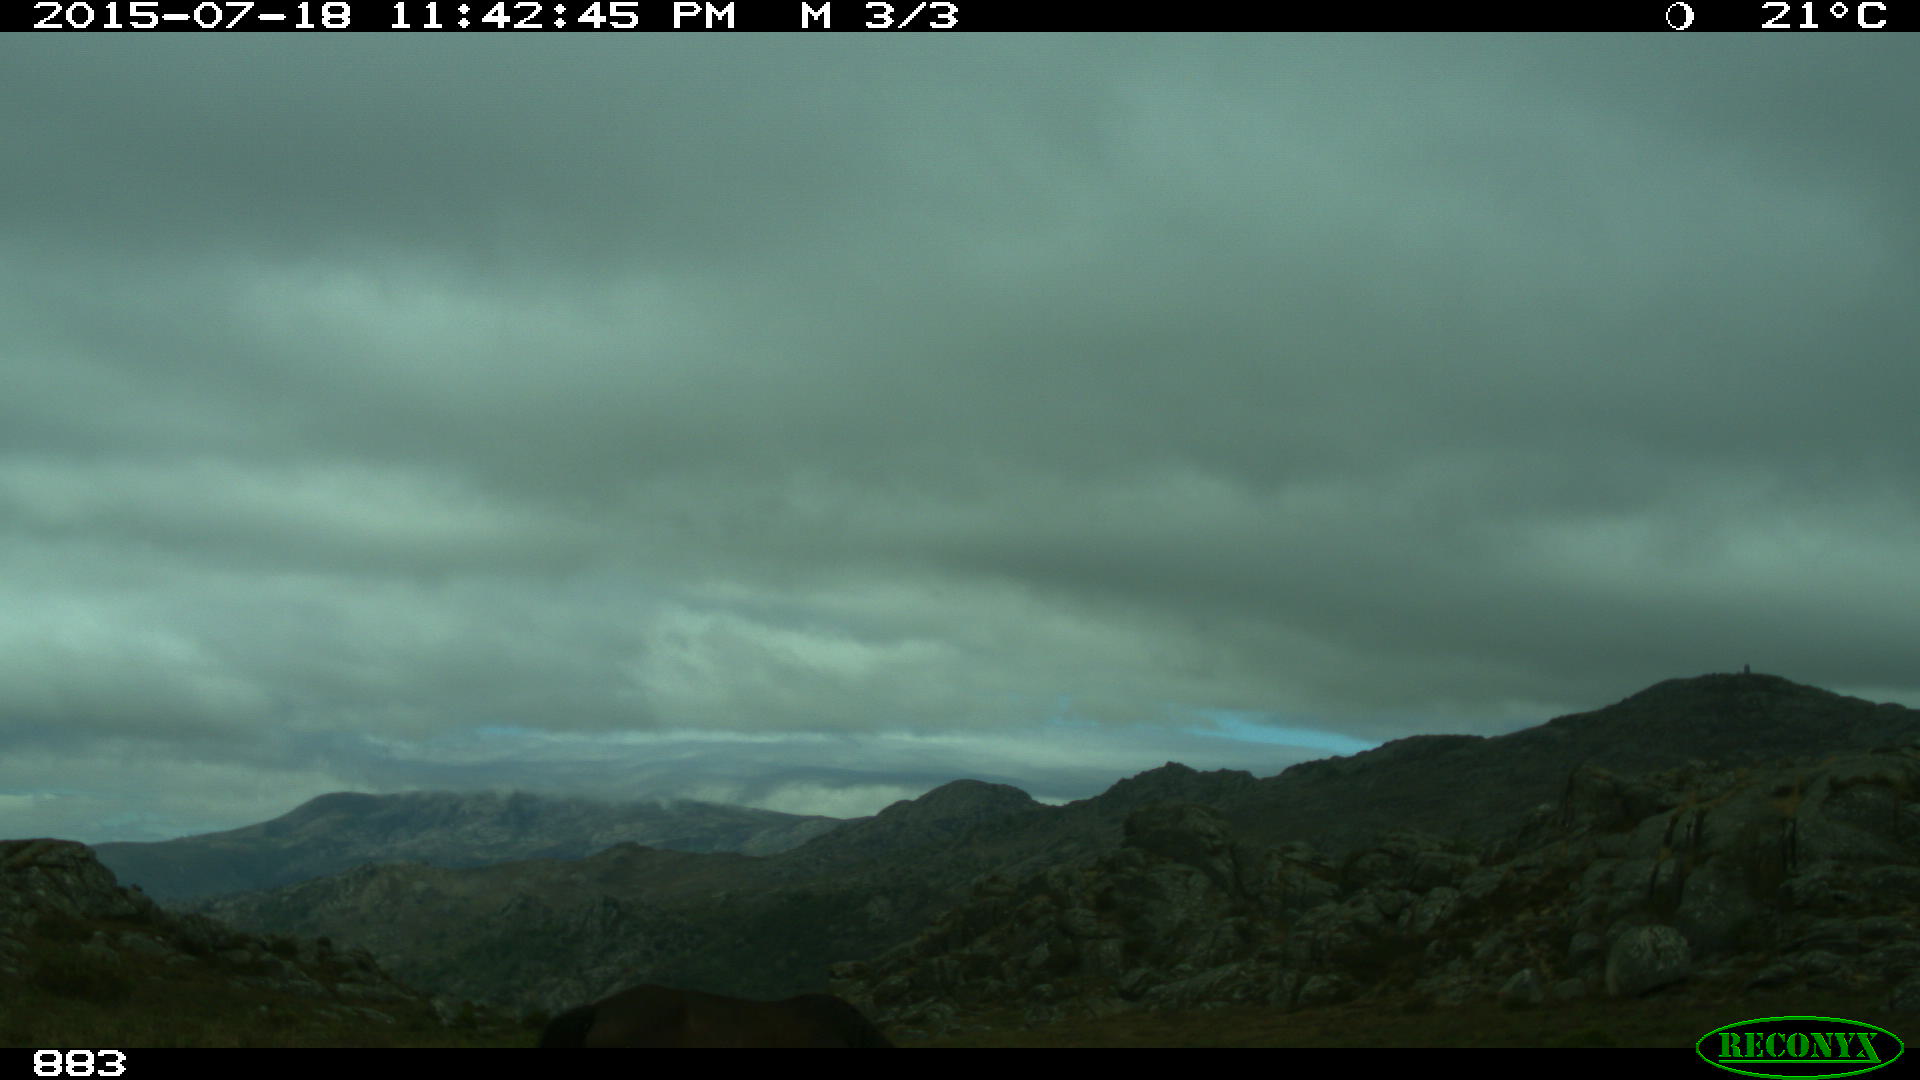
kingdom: Animalia
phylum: Chordata
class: Mammalia
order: Perissodactyla
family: Equidae
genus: Equus
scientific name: Equus caballus
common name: Horse
